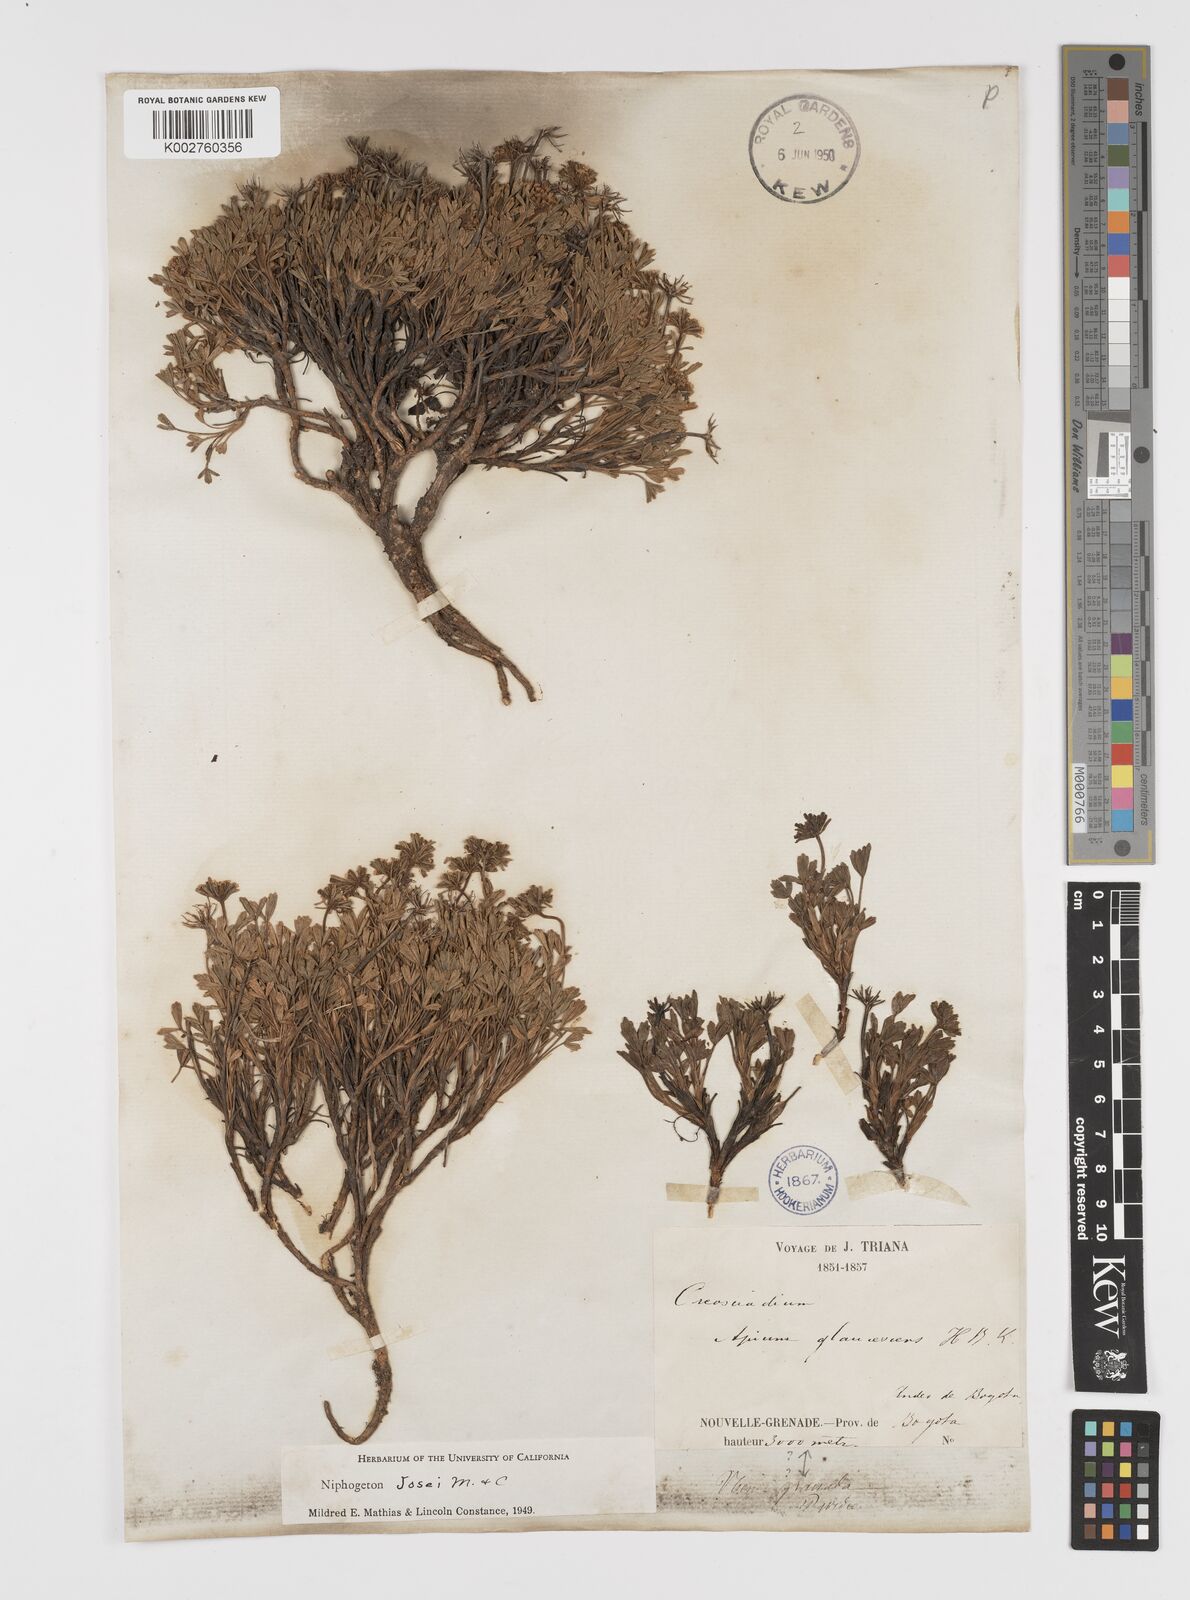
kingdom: Plantae
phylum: Tracheophyta
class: Magnoliopsida
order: Apiales
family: Apiaceae
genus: Niphogeton
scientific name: Niphogeton josei
